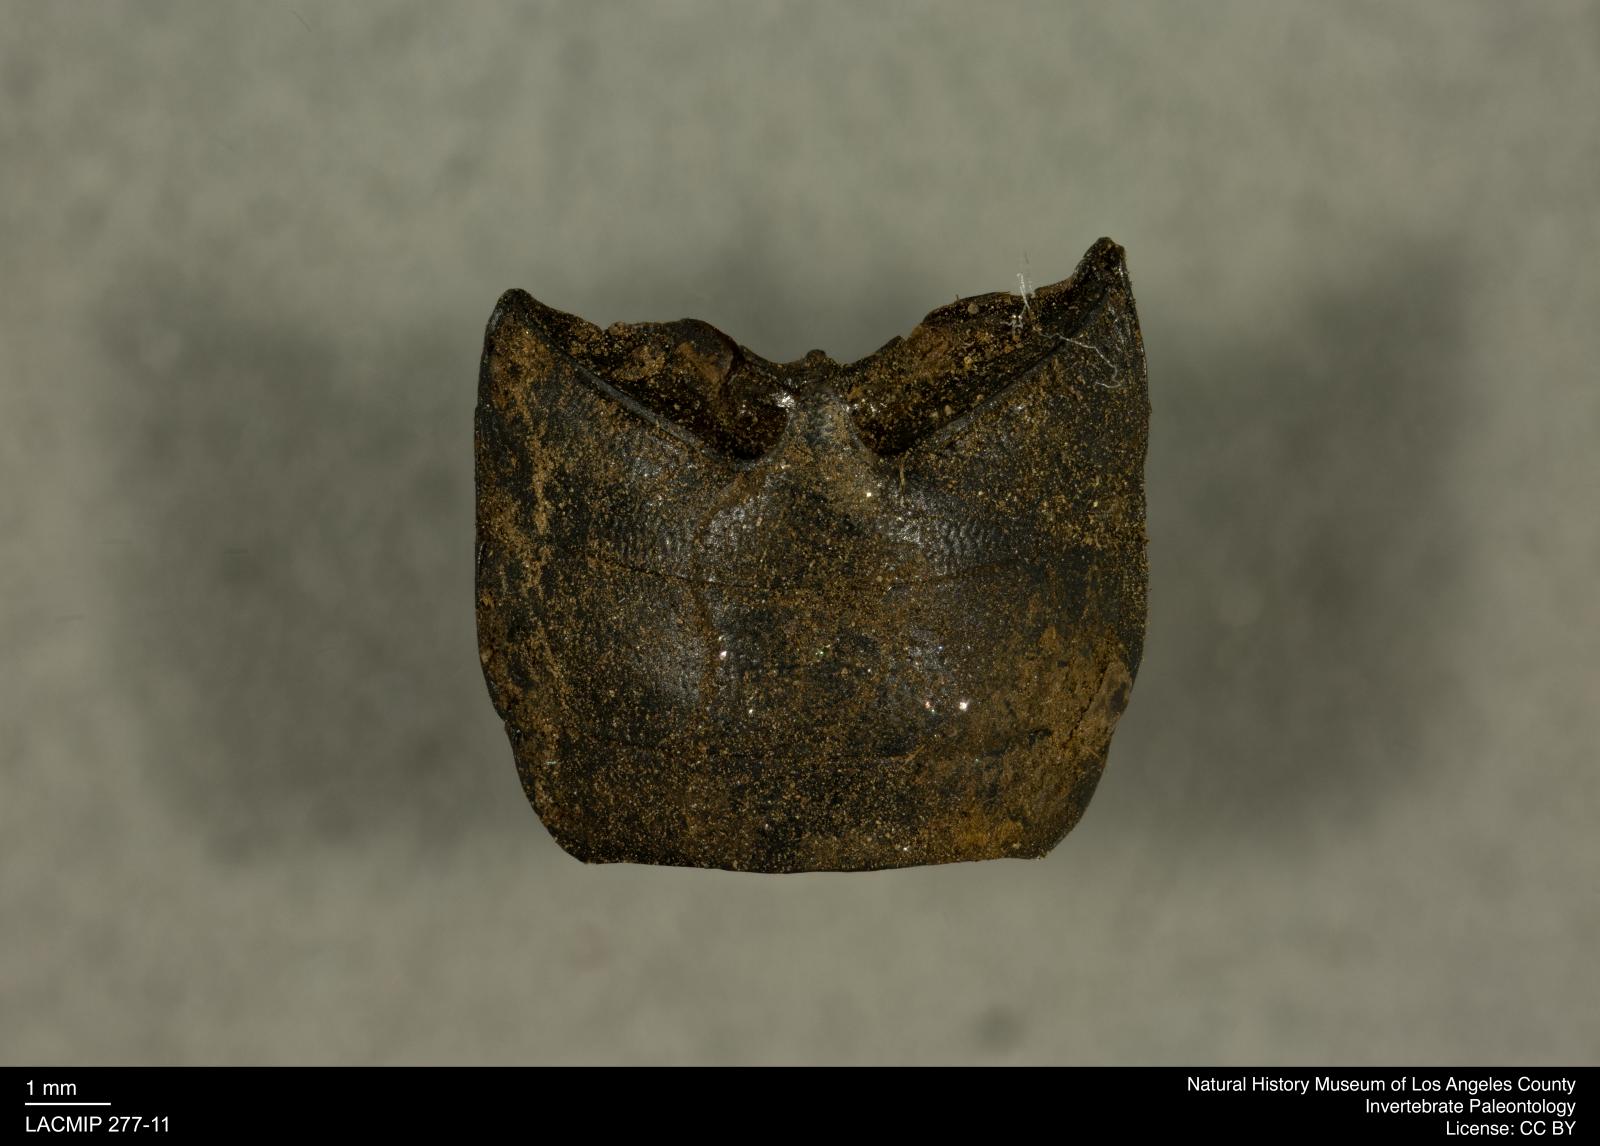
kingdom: Animalia
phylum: Arthropoda
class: Insecta
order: Coleoptera
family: Tenebrionidae
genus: Coniontis
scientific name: Coniontis abdominalis
